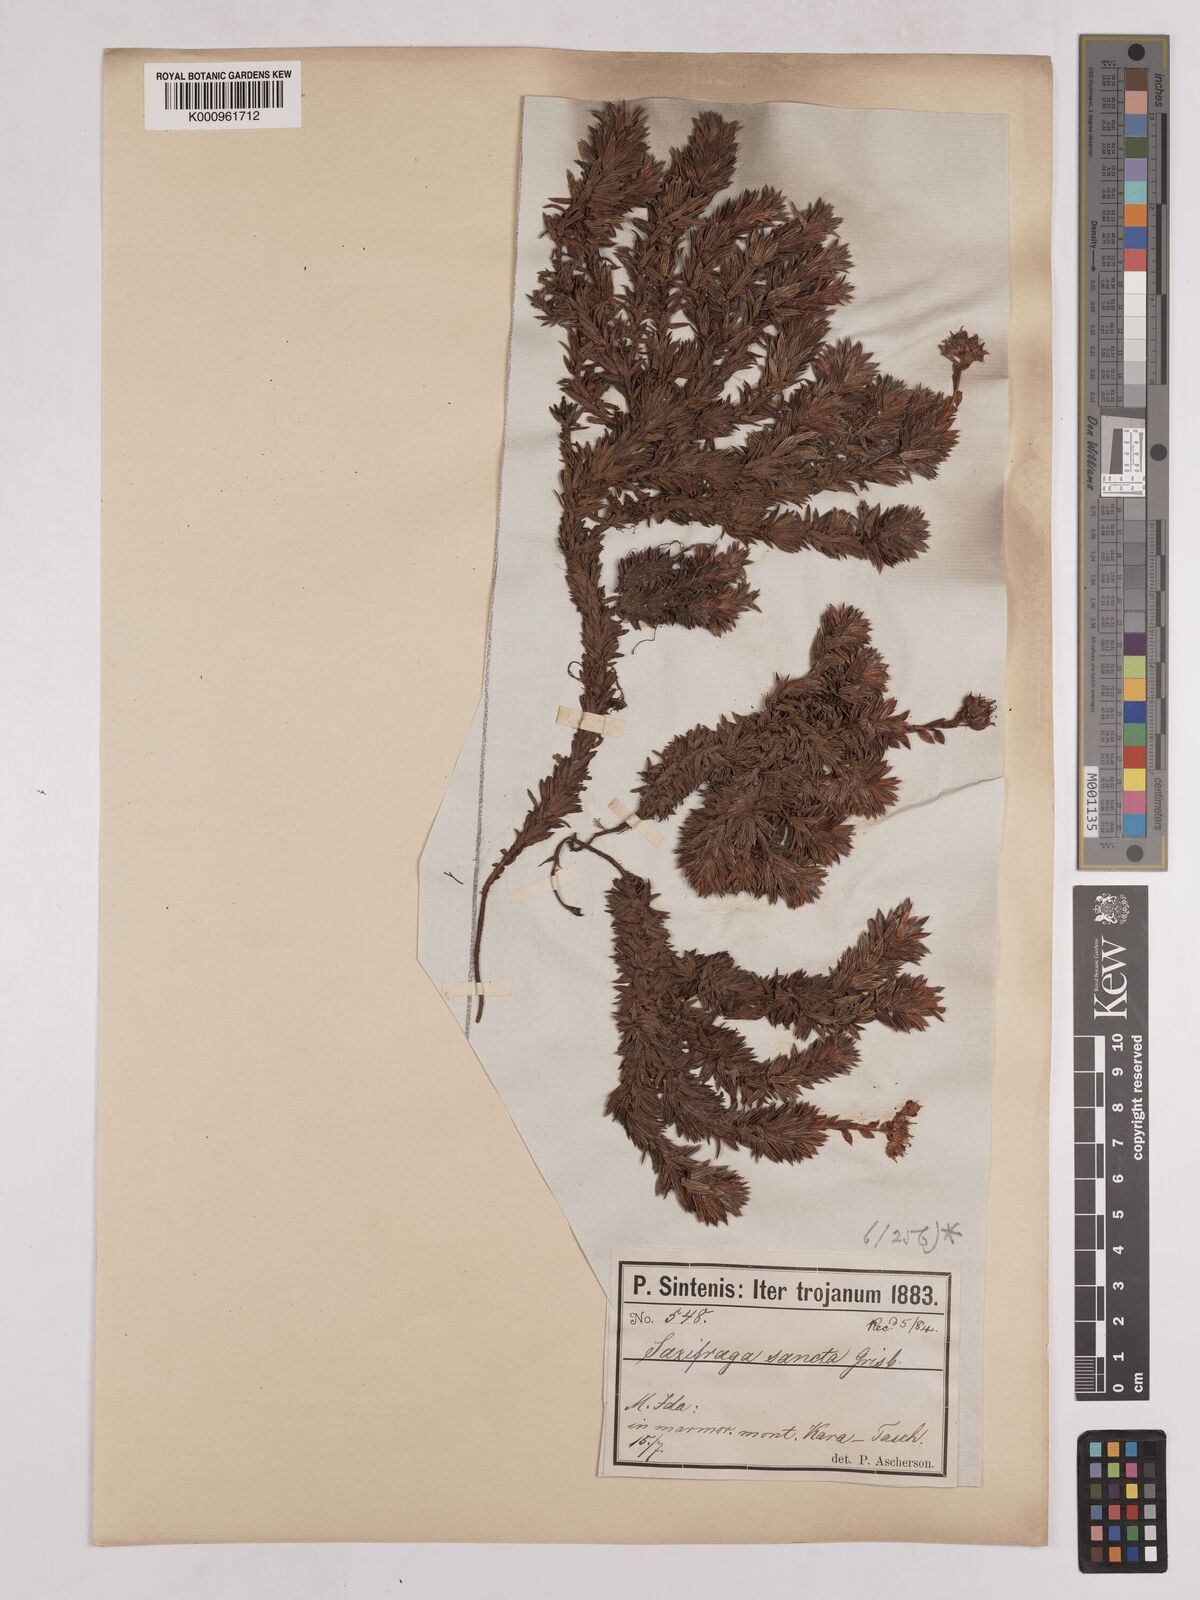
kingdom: Plantae
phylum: Tracheophyta
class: Magnoliopsida
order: Saxifragales
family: Saxifragaceae
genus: Saxifraga
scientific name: Saxifraga sancta
